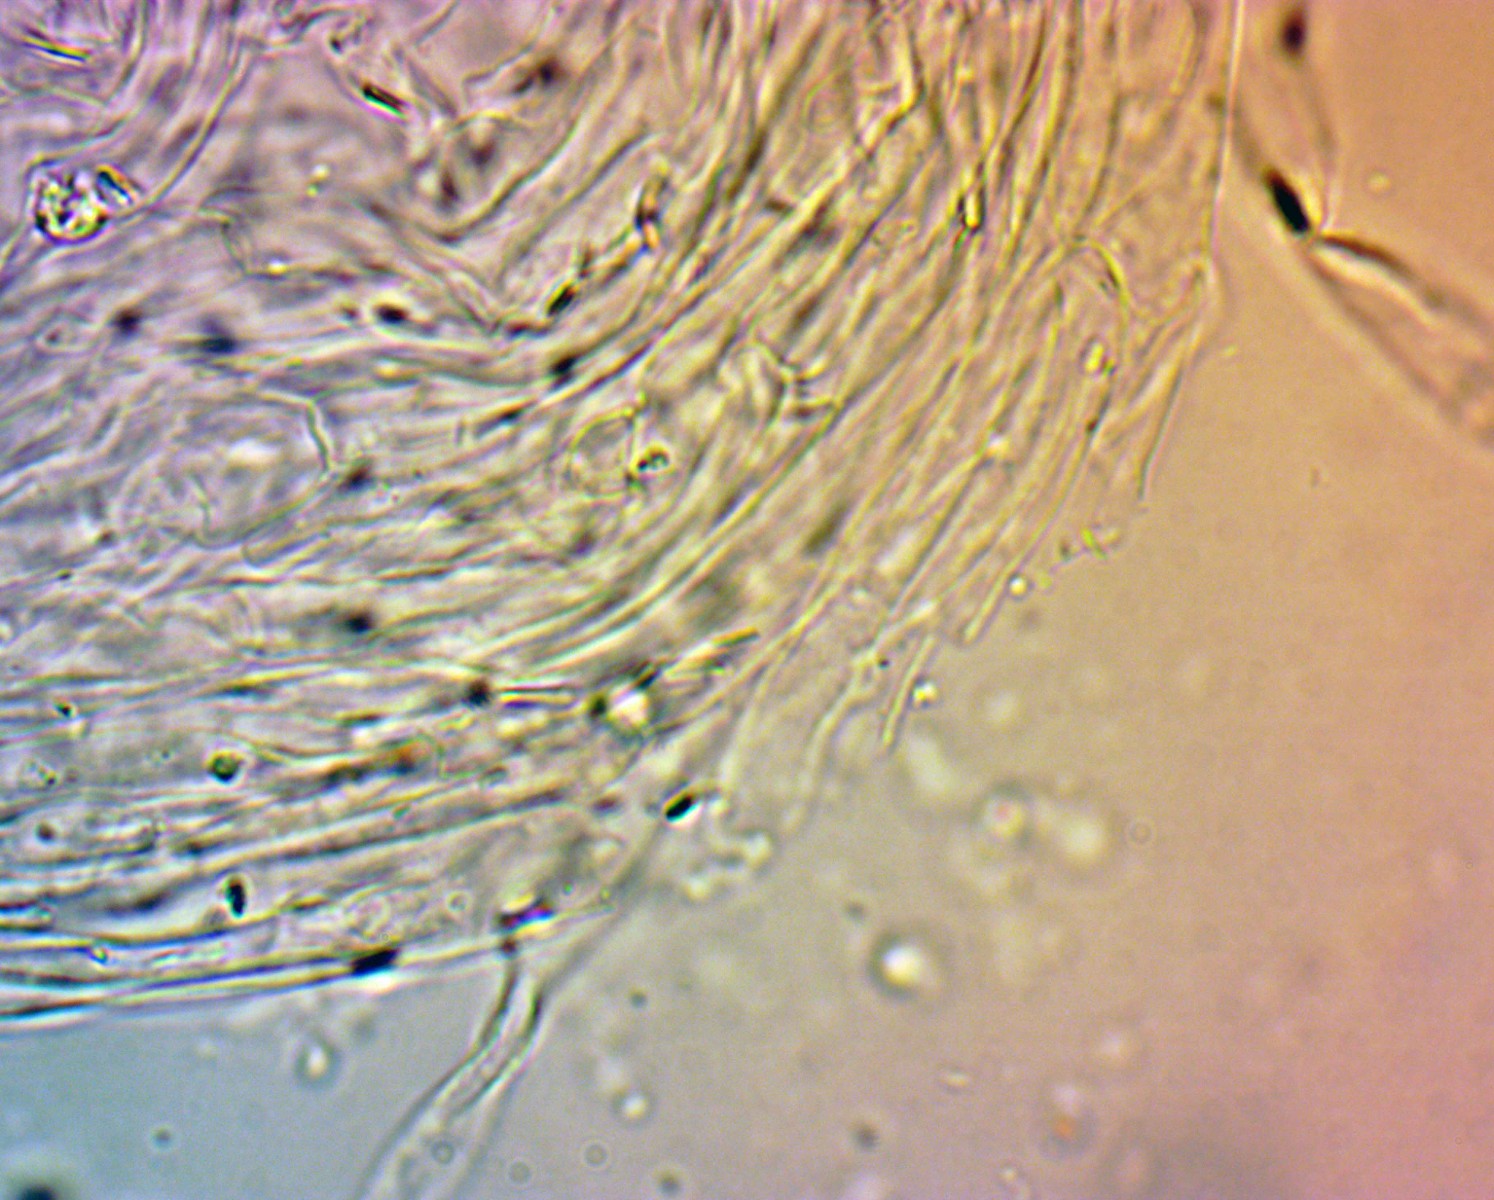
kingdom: Fungi
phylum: Basidiomycota
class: Agaricomycetes
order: Agaricales
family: Entolomataceae
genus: Entoloma
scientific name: Entoloma lividoalbum
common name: lysstokket rødblad
